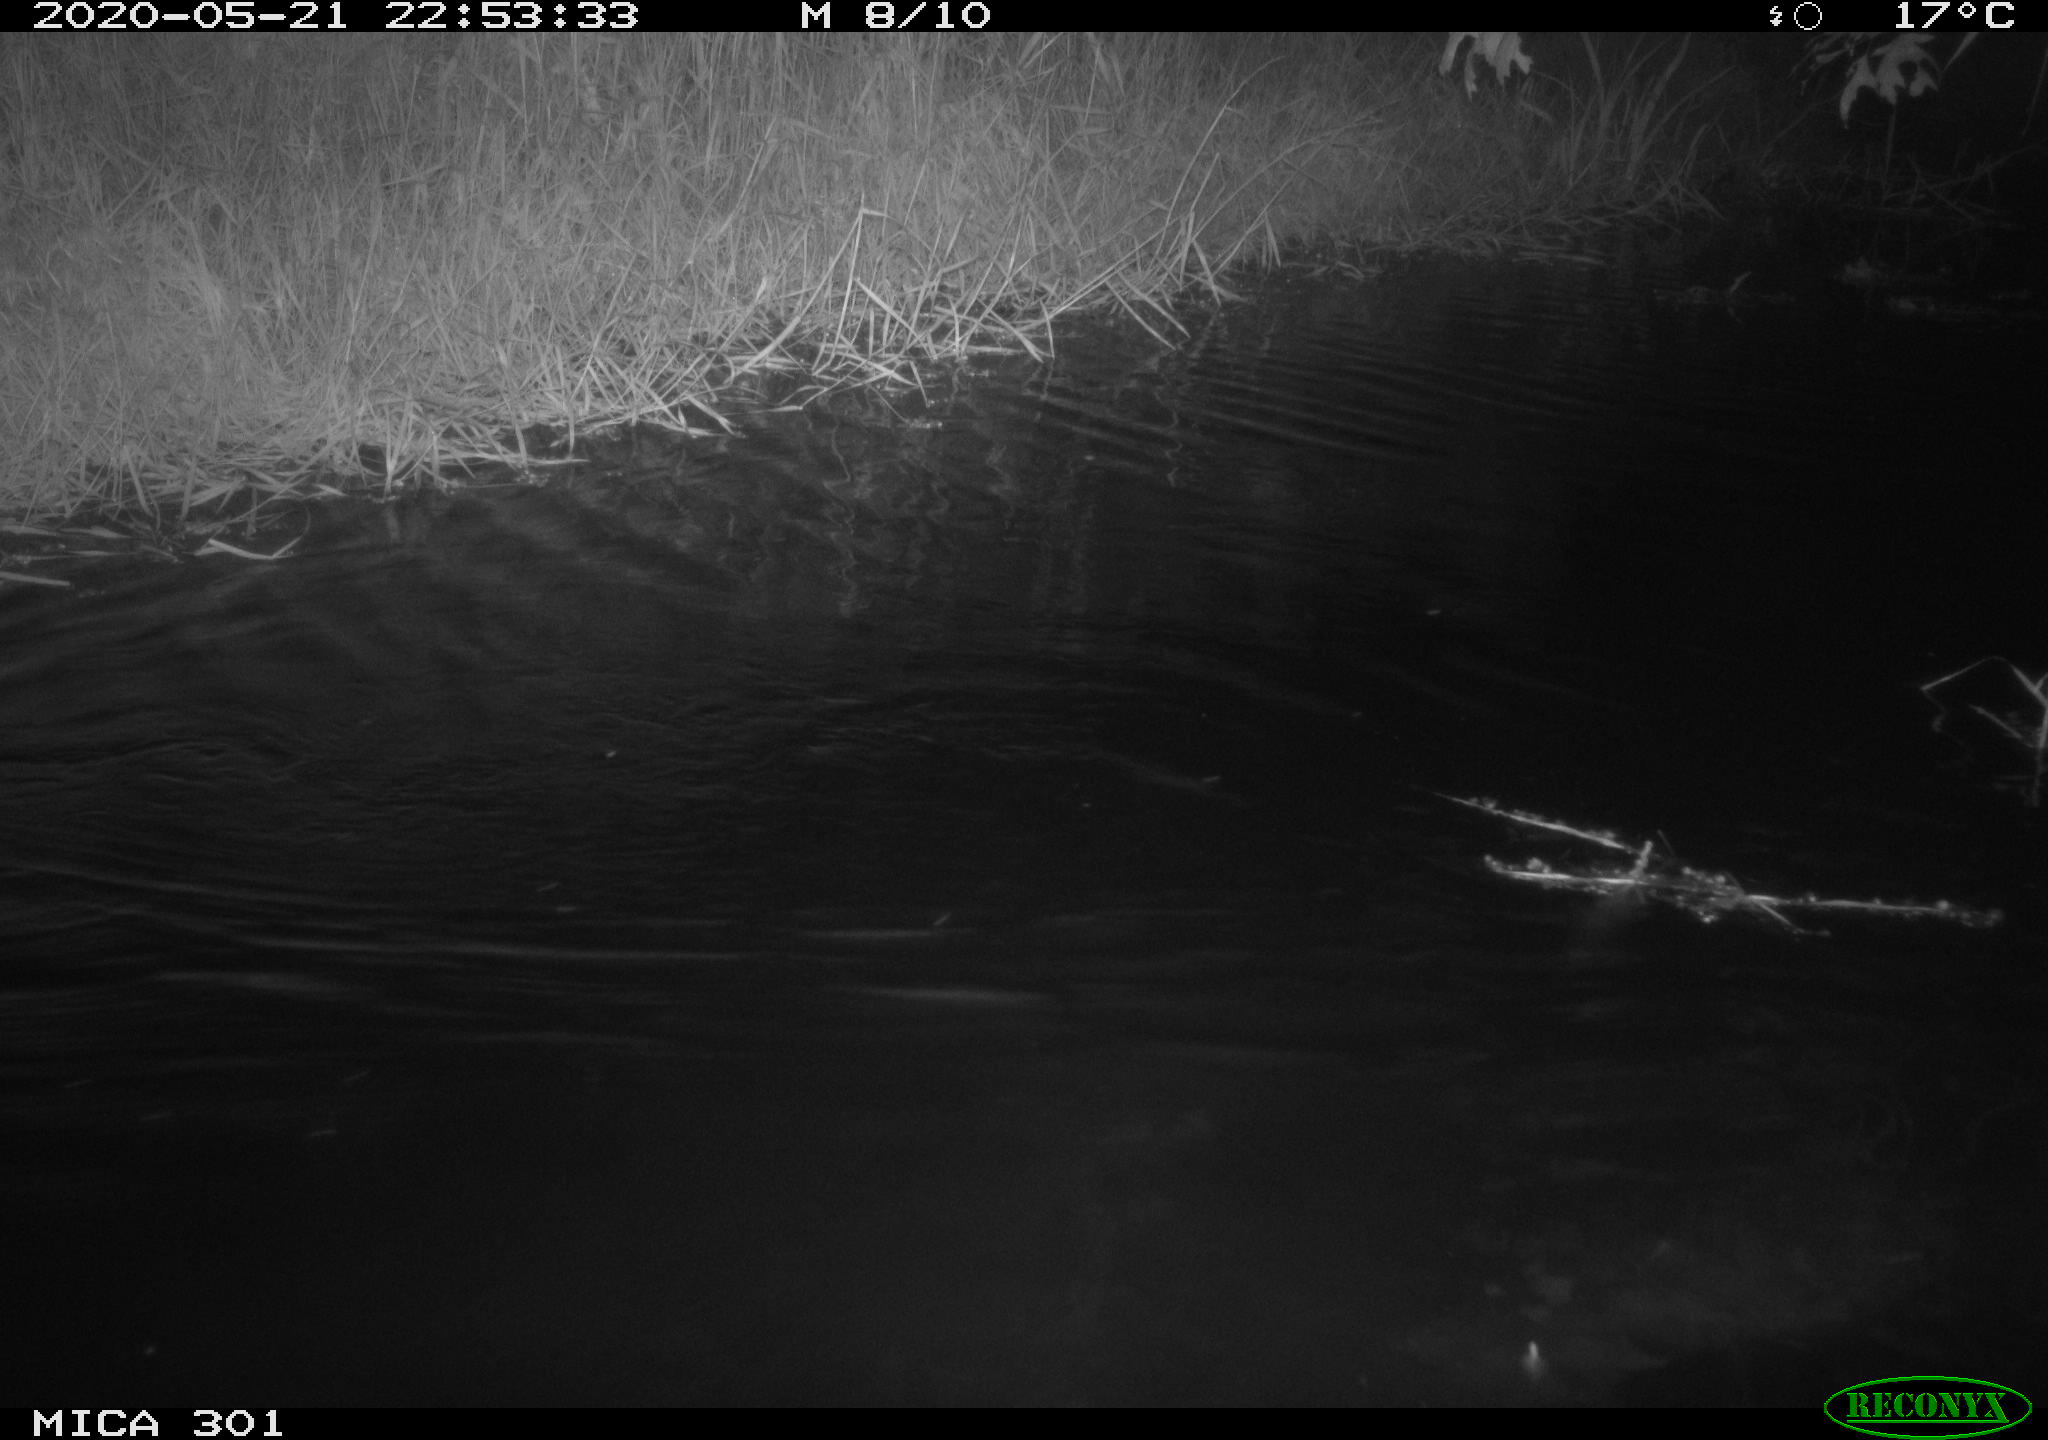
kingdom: Animalia
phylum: Chordata
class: Mammalia
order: Rodentia
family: Castoridae
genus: Castor
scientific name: Castor fiber
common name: Eurasian beaver
